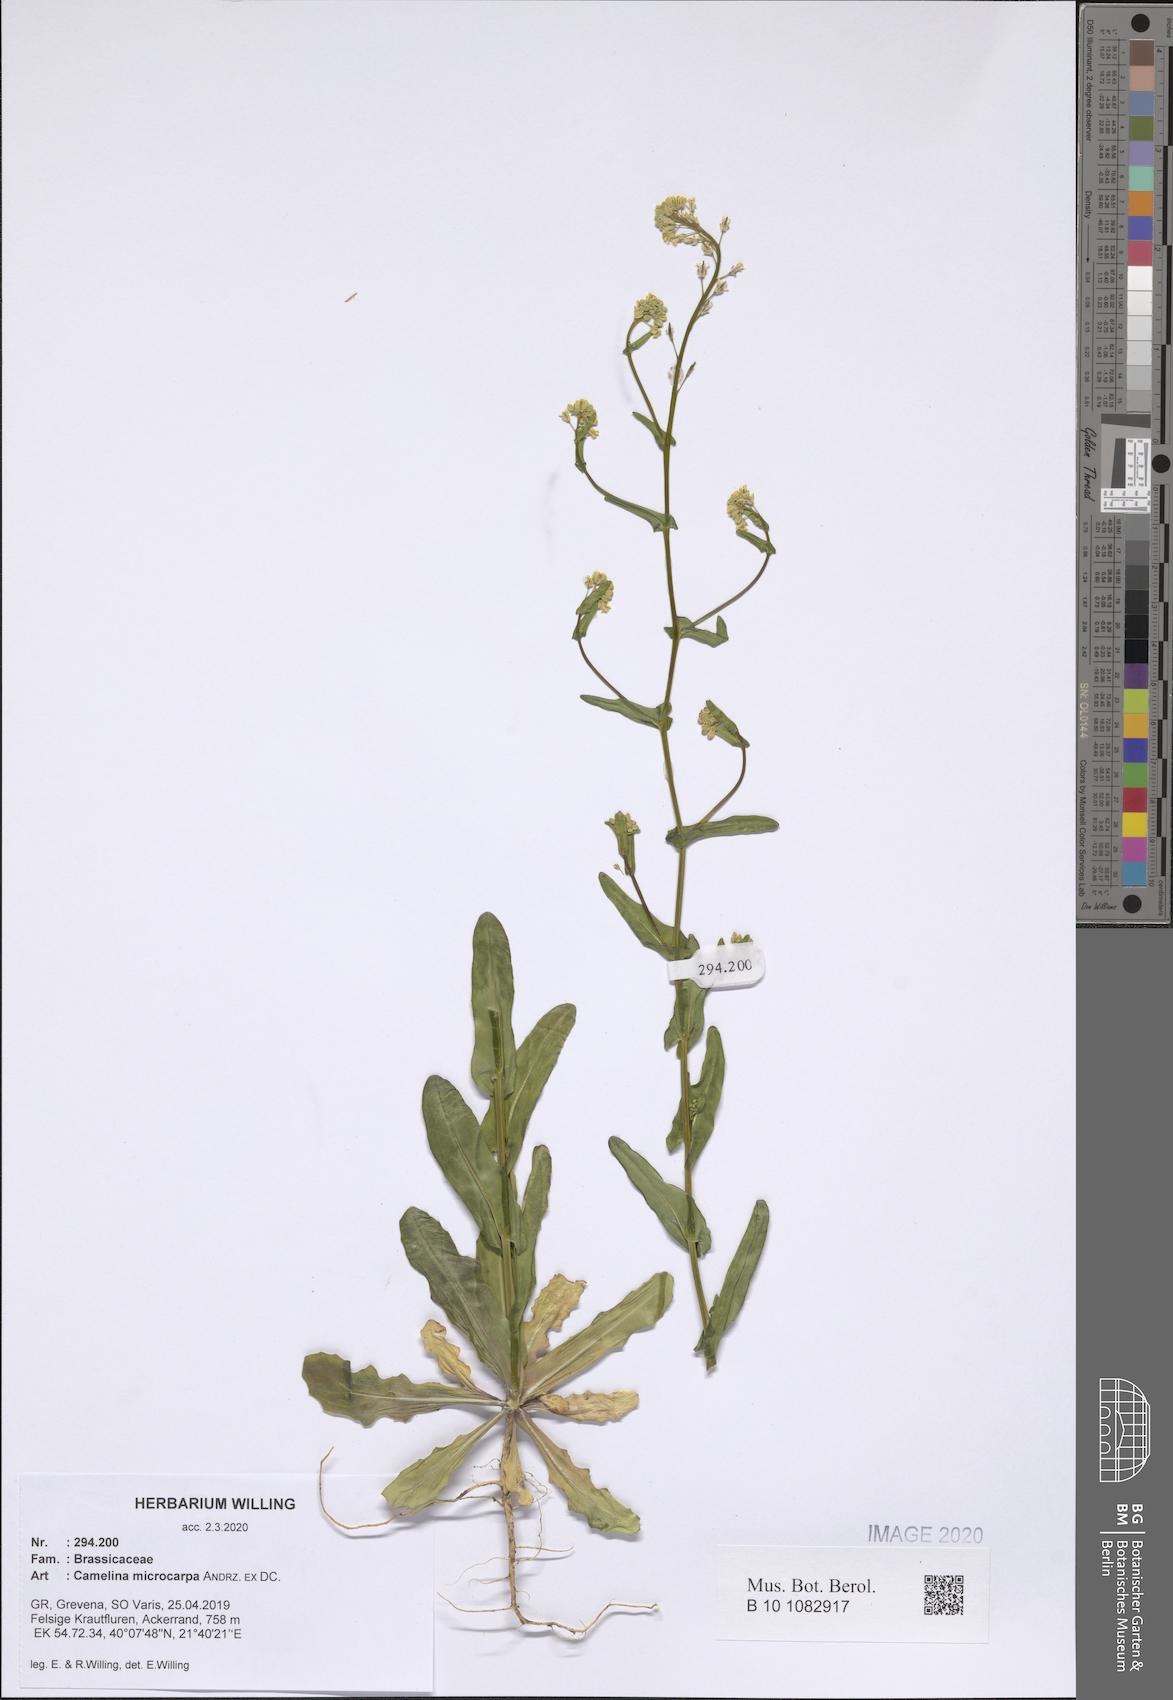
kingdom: Plantae
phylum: Tracheophyta
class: Magnoliopsida
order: Brassicales
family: Brassicaceae
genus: Camelina
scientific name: Camelina microcarpa
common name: Lesser gold-of-pleasure
